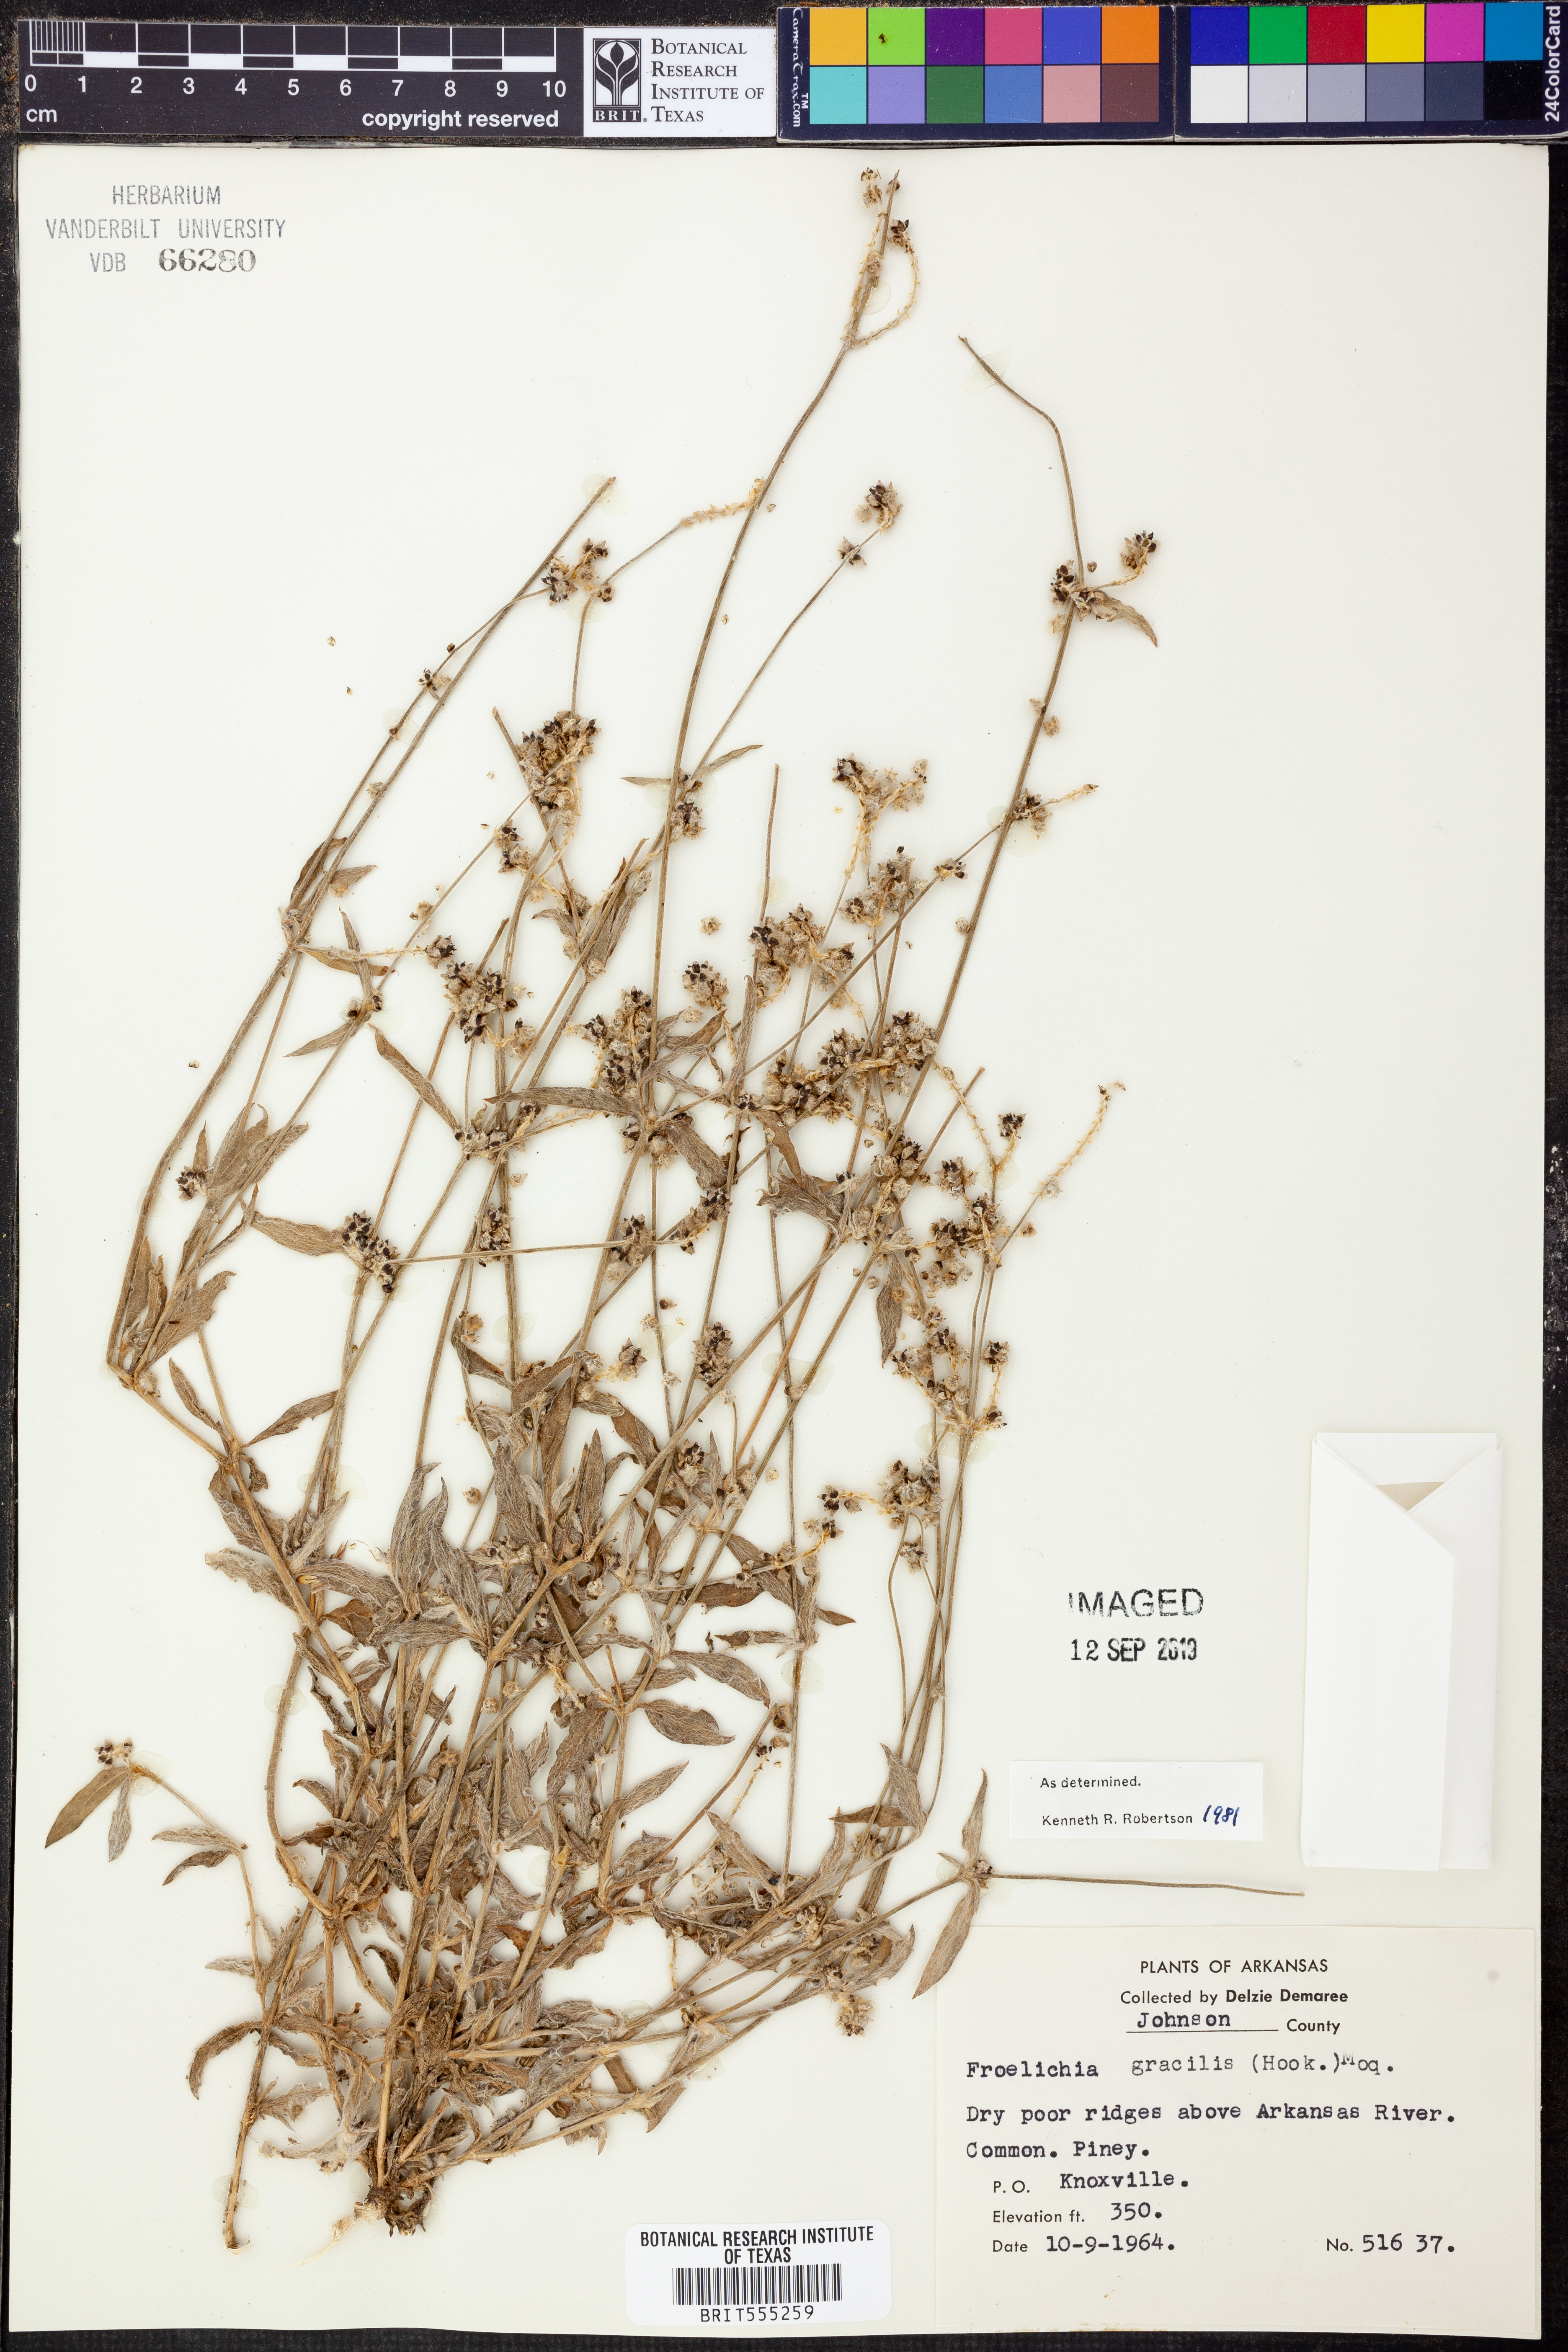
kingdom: Plantae
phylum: Tracheophyta
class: Magnoliopsida
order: Caryophyllales
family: Amaranthaceae
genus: Froelichia
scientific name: Froelichia gracilis
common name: Slender cottonweed
